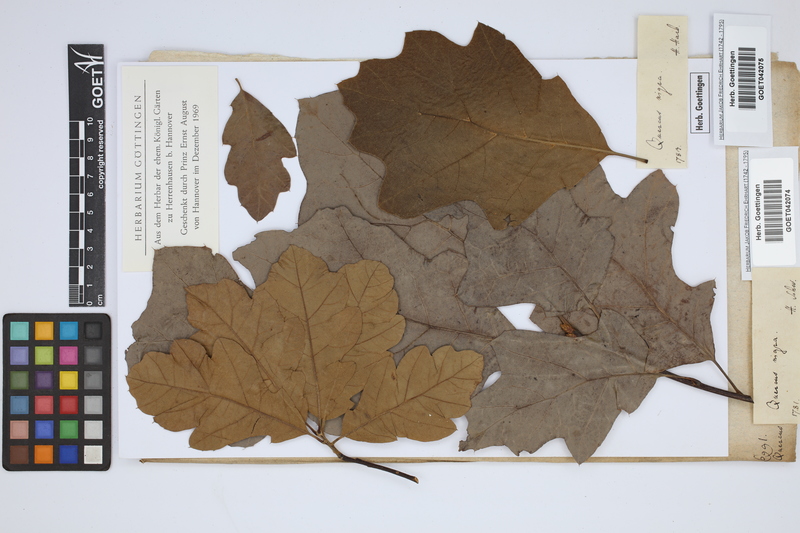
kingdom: Plantae
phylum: Tracheophyta
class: Magnoliopsida
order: Fagales
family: Fagaceae
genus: Quercus
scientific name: Quercus nigra
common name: Water oak
